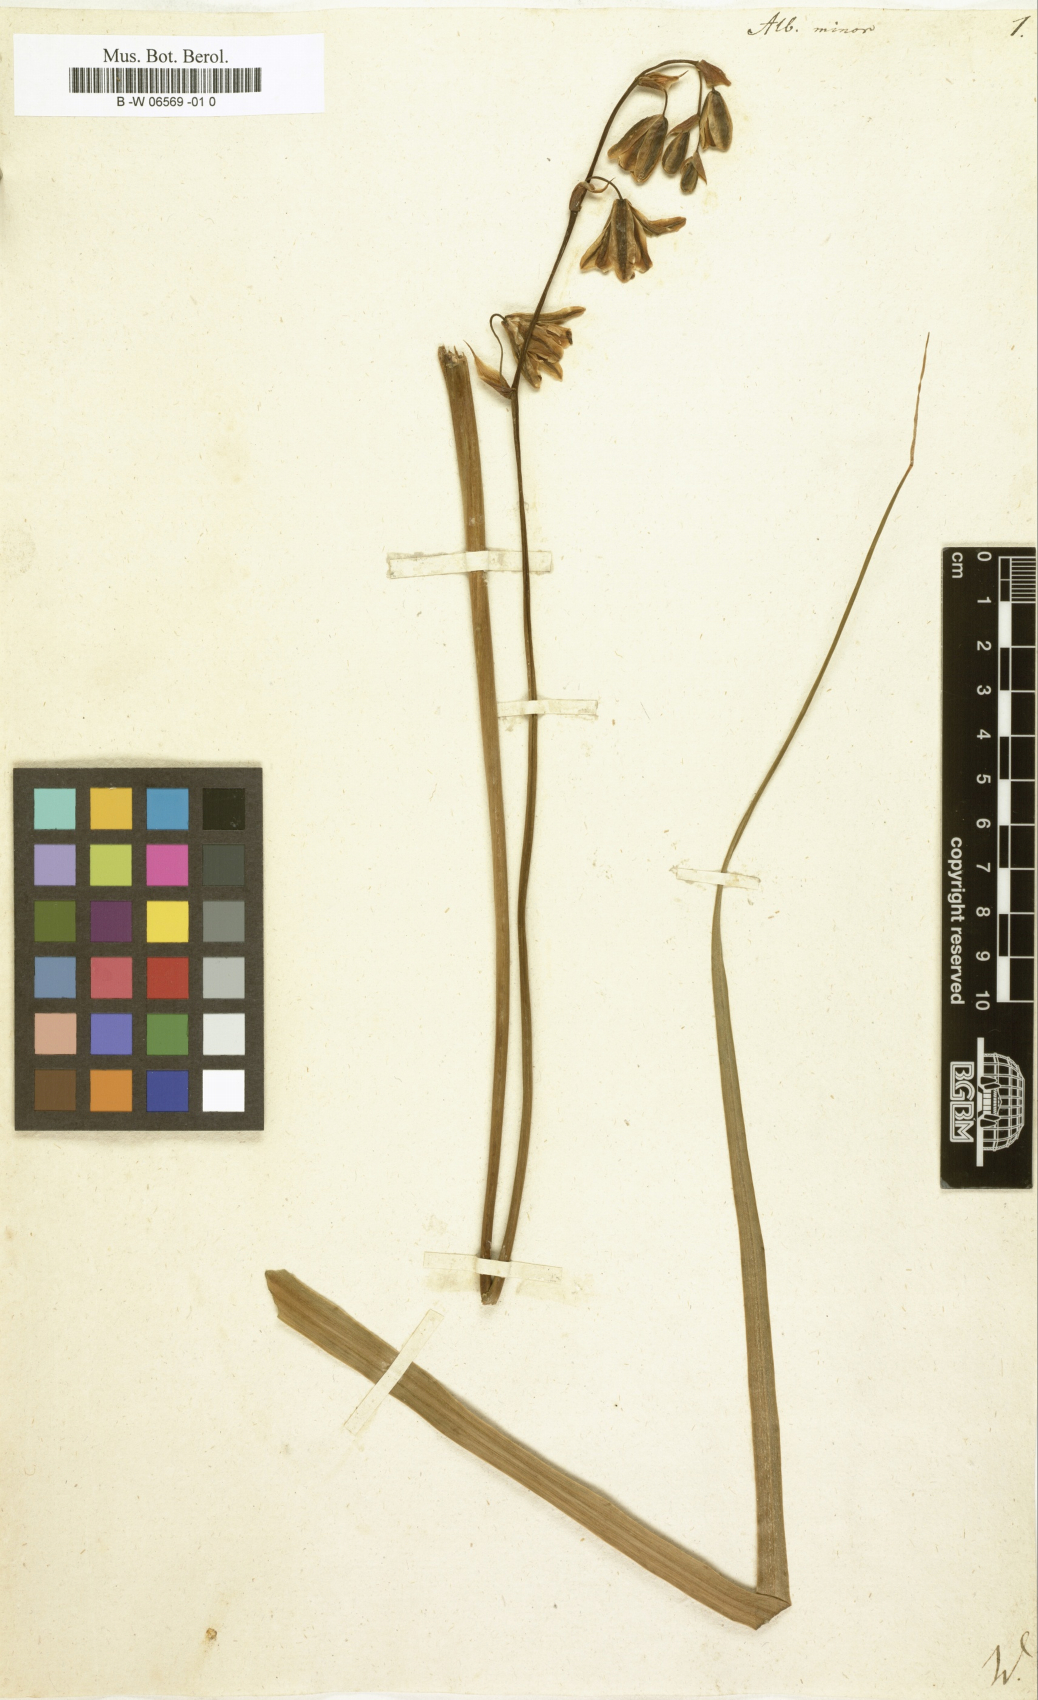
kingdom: Plantae
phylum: Tracheophyta
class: Liliopsida
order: Asparagales
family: Asparagaceae
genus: Albuca
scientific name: Albuca canadensis
